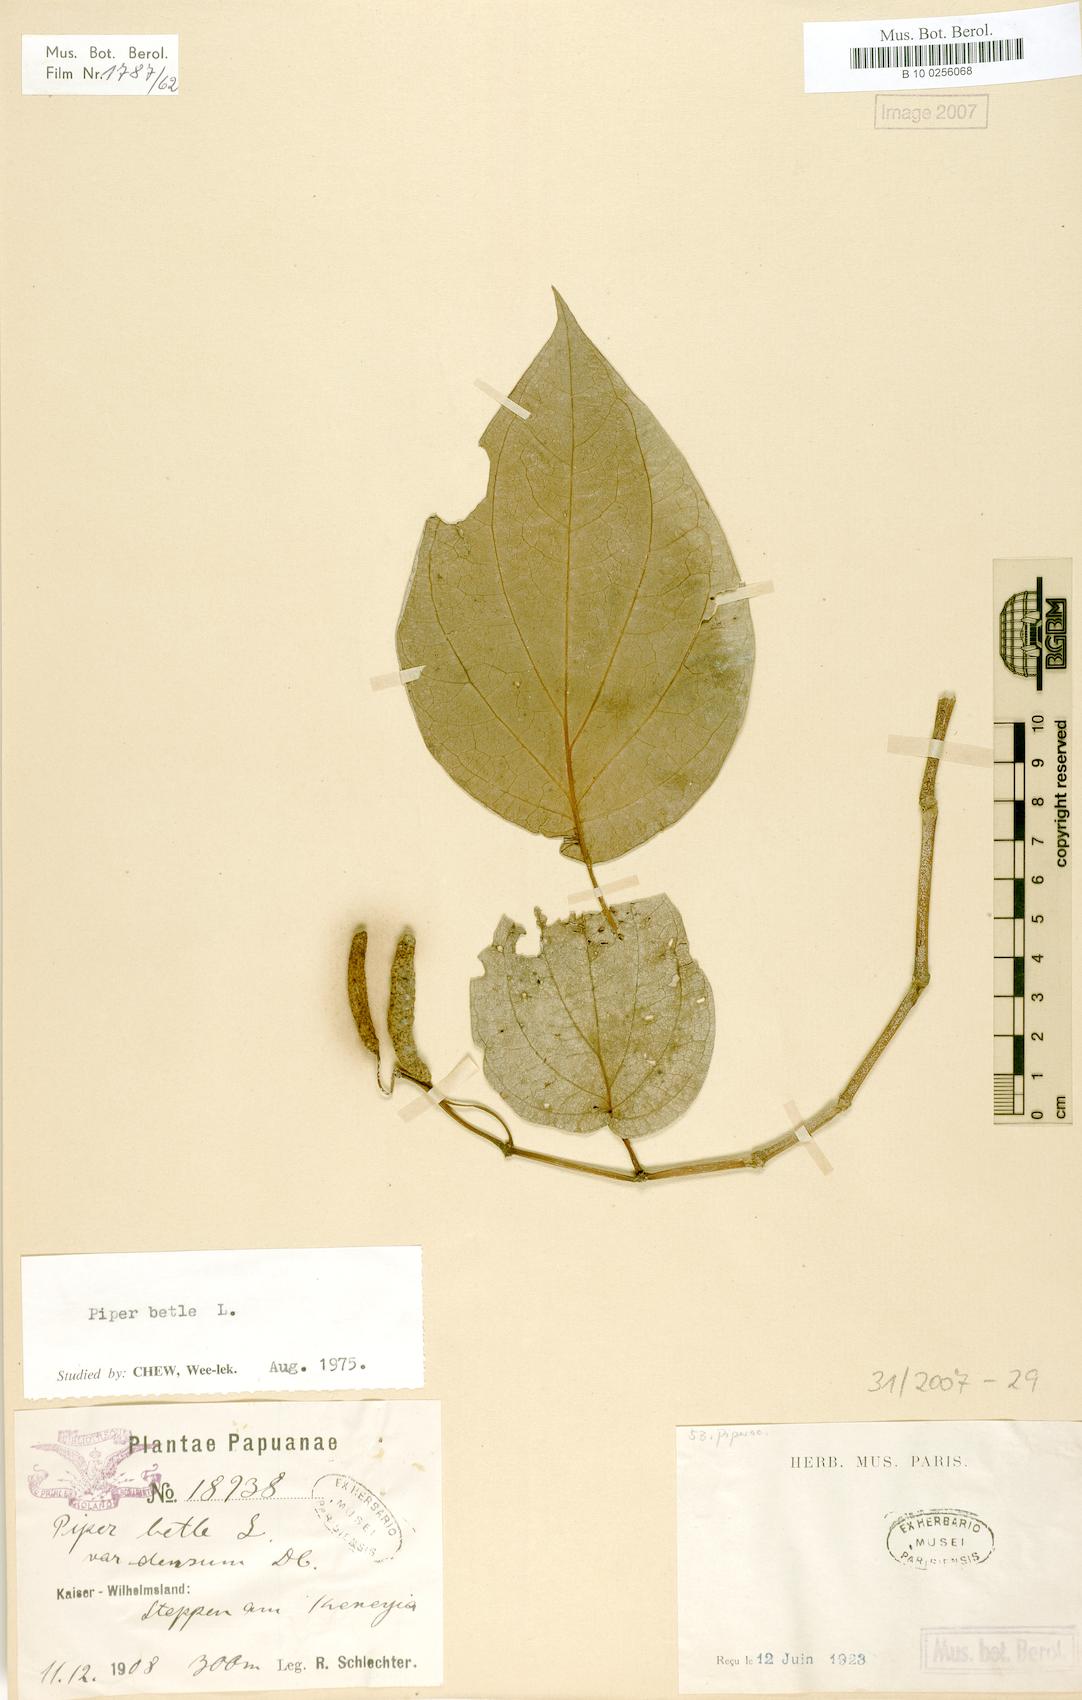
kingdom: Plantae
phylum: Tracheophyta
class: Magnoliopsida
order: Piperales
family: Piperaceae
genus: Piper
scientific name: Piper betle
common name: Betel pepper
